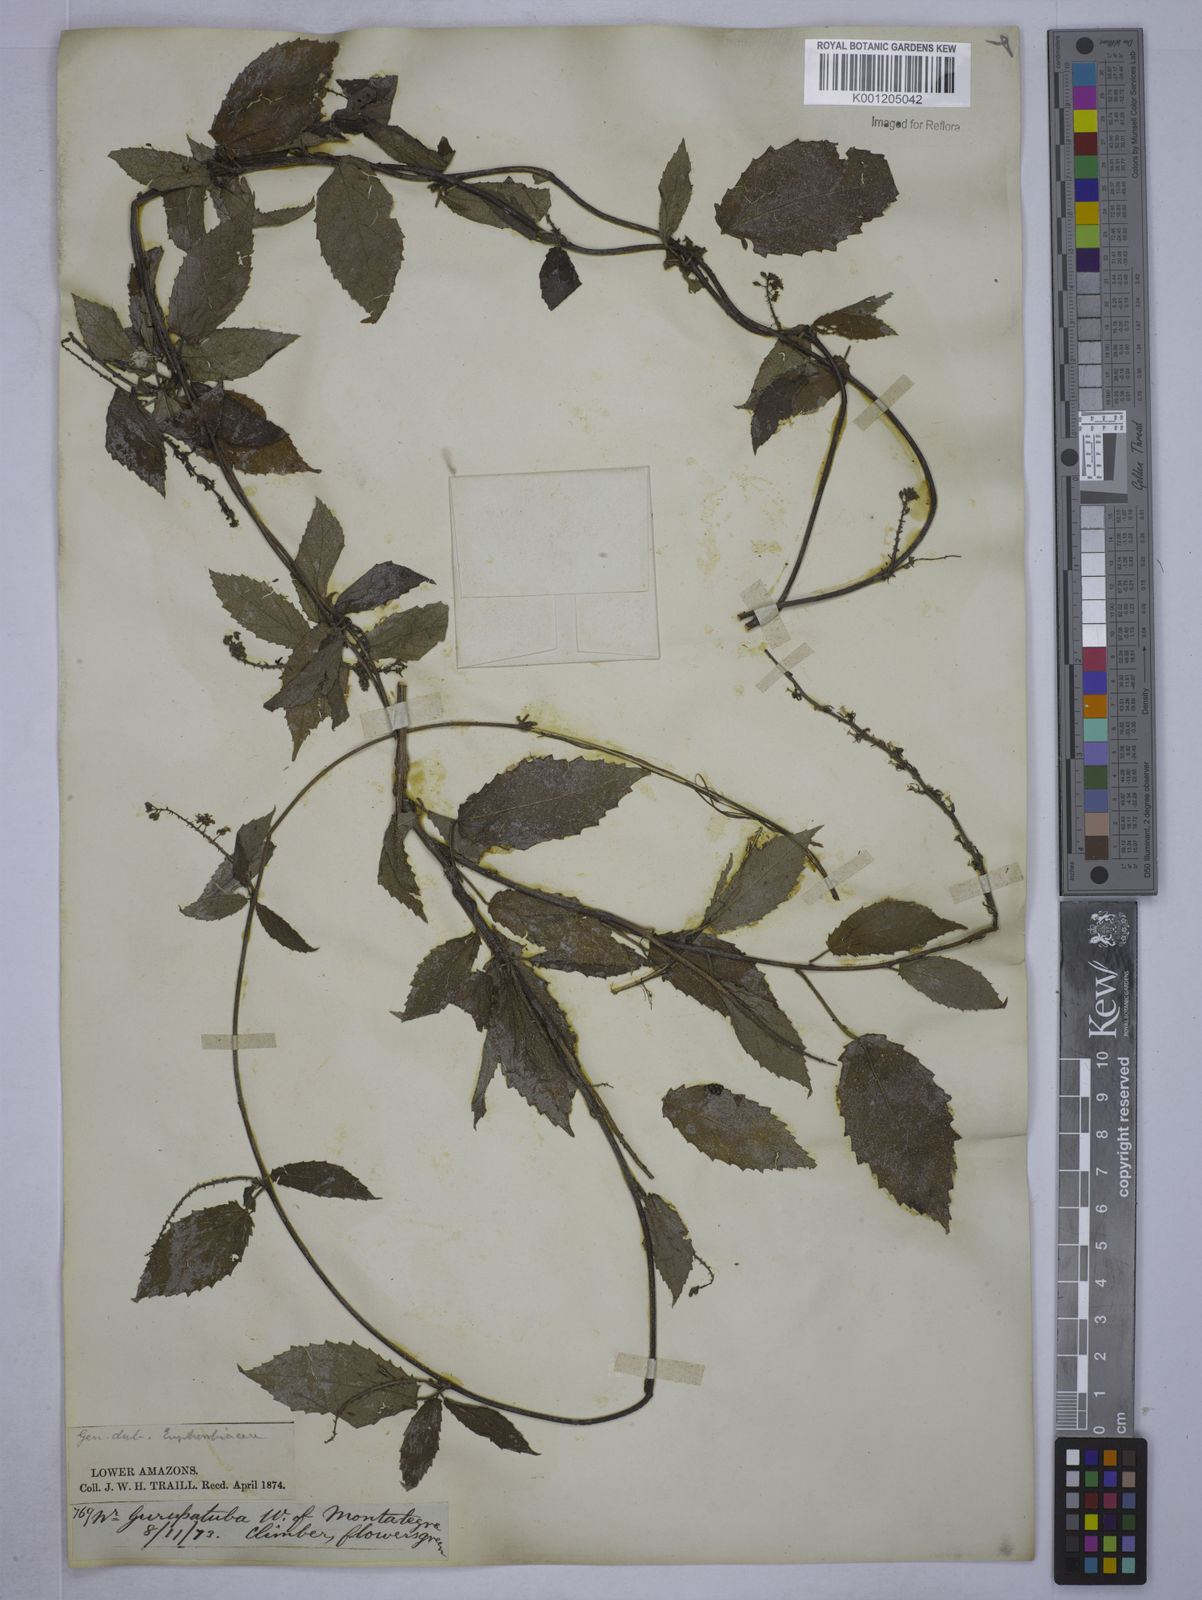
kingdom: Plantae
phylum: Tracheophyta
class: Magnoliopsida
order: Malpighiales
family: Euphorbiaceae
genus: Tragia
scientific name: Tragia volubilis
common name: Twining cow-itch
